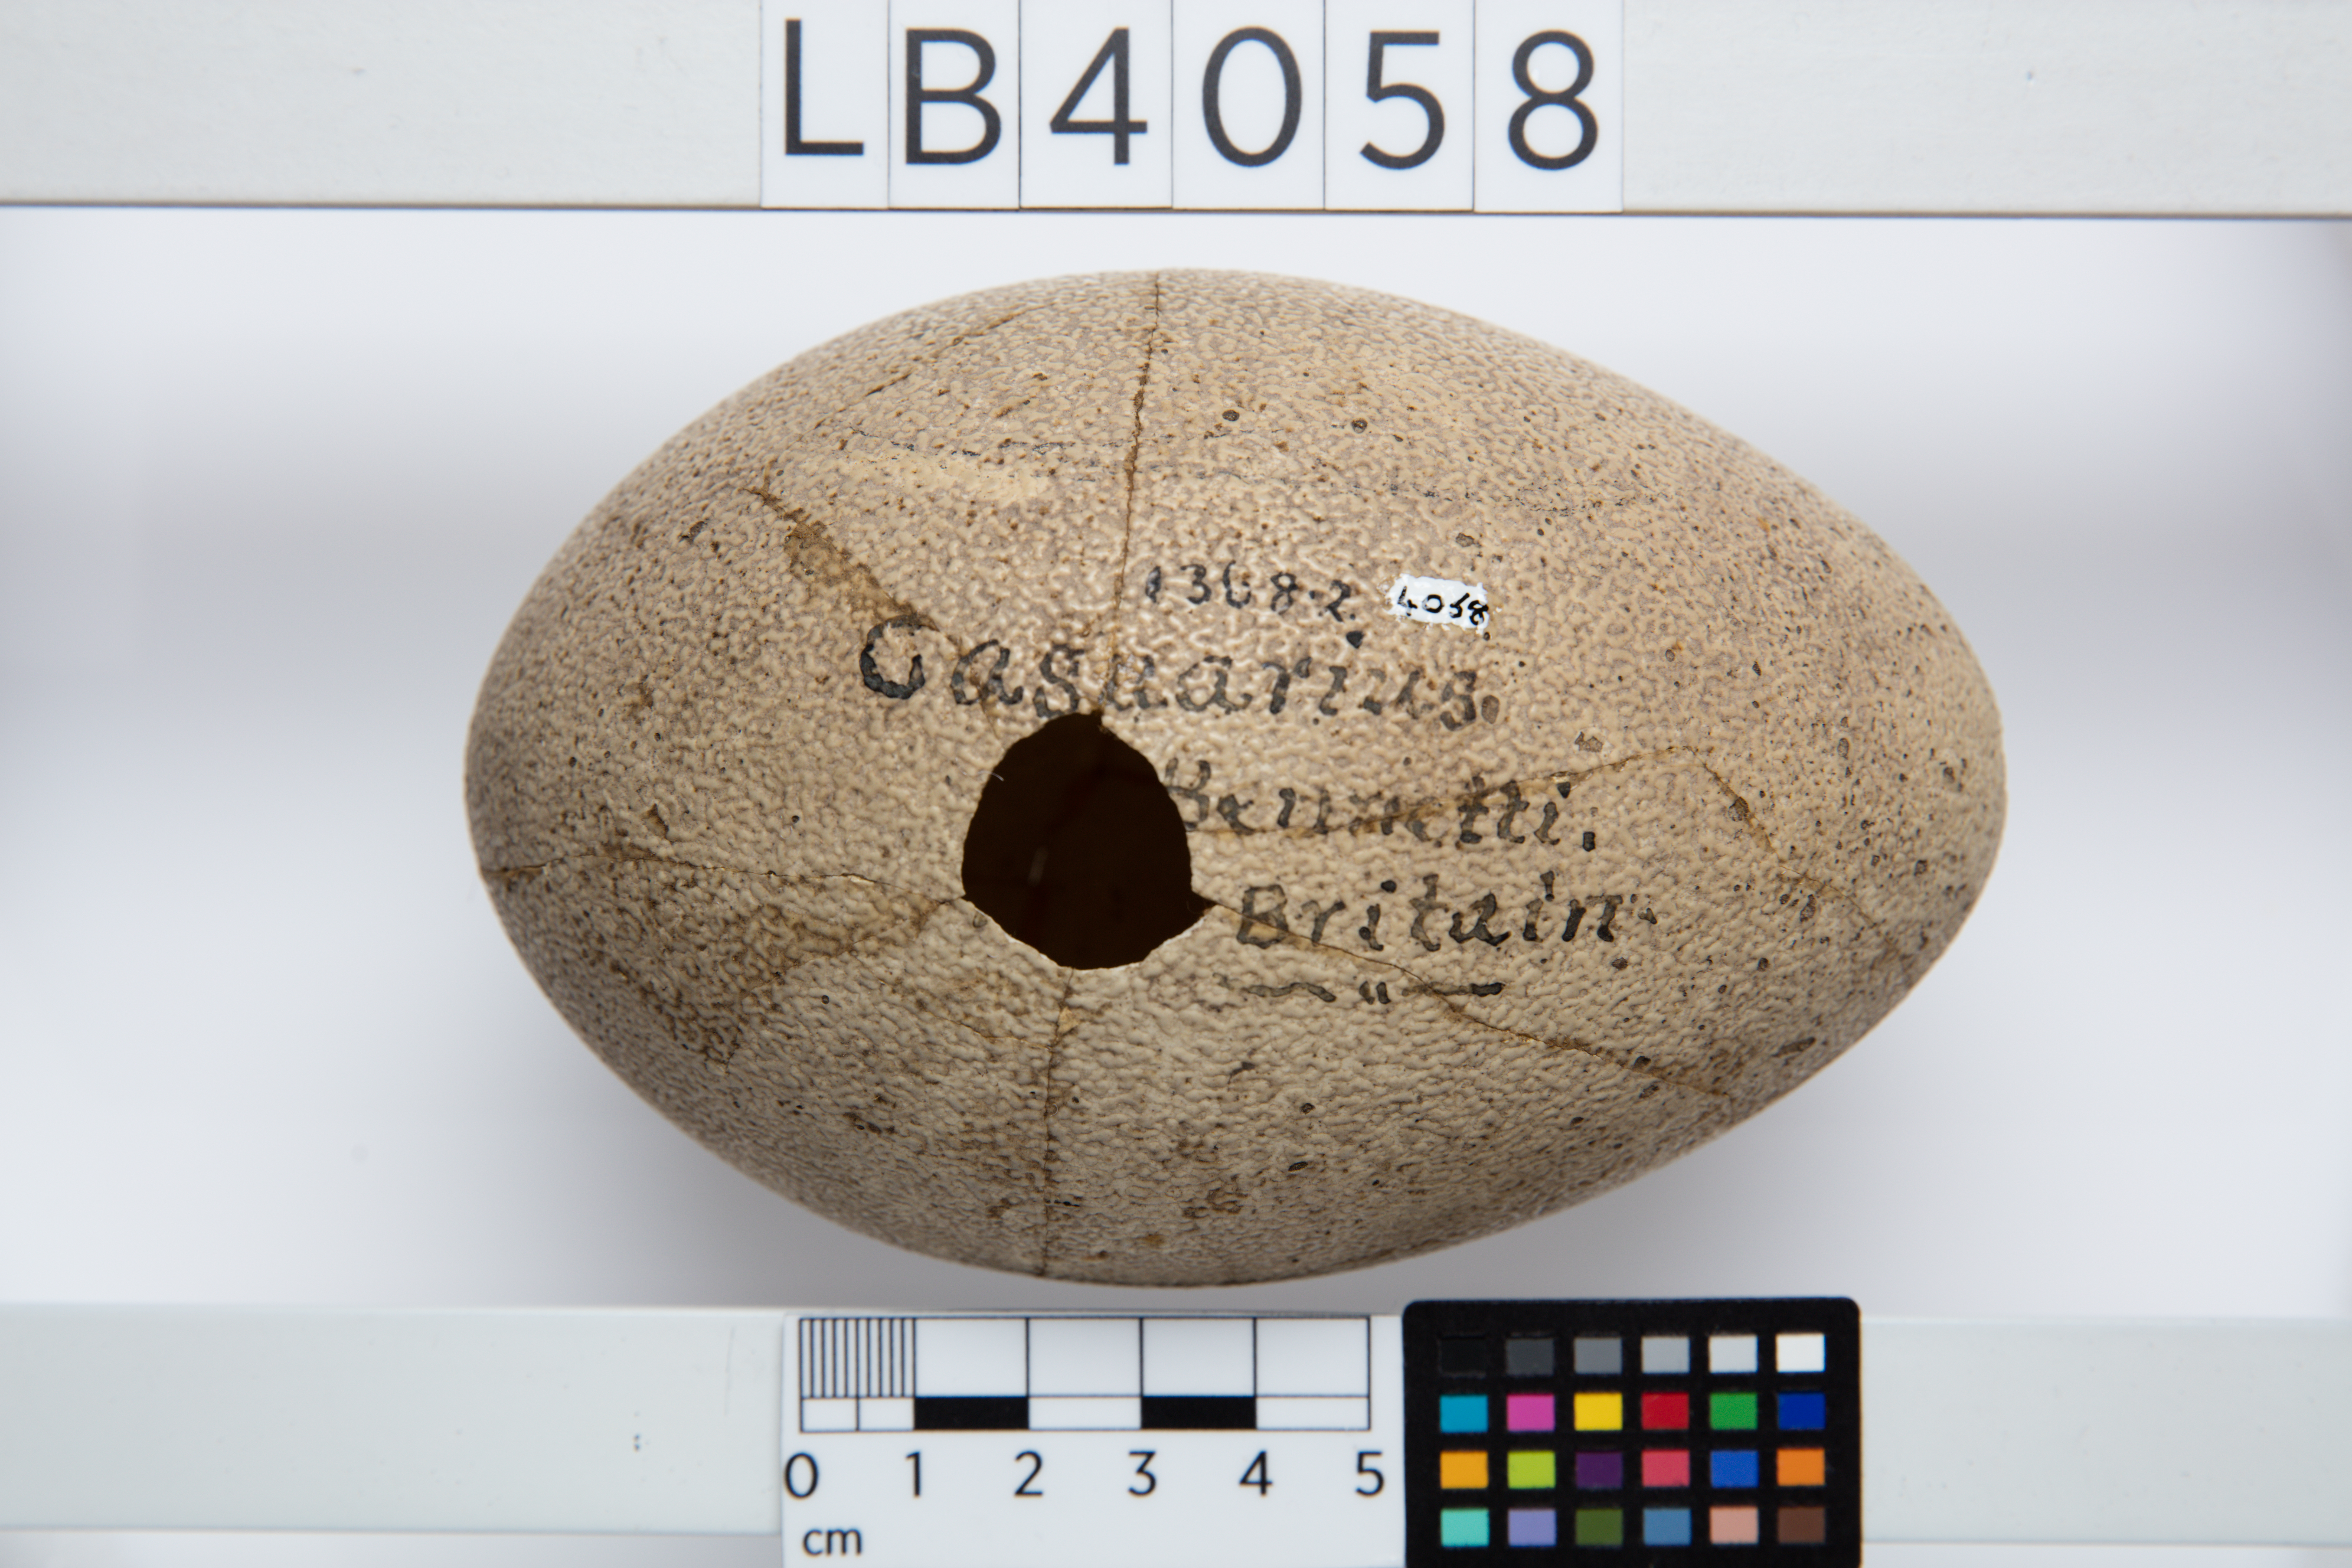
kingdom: Animalia
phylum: Chordata
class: Aves
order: Casuariiformes
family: Casuariidae
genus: Casuarius
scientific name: Casuarius bennetti
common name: Dwarf cassowary
